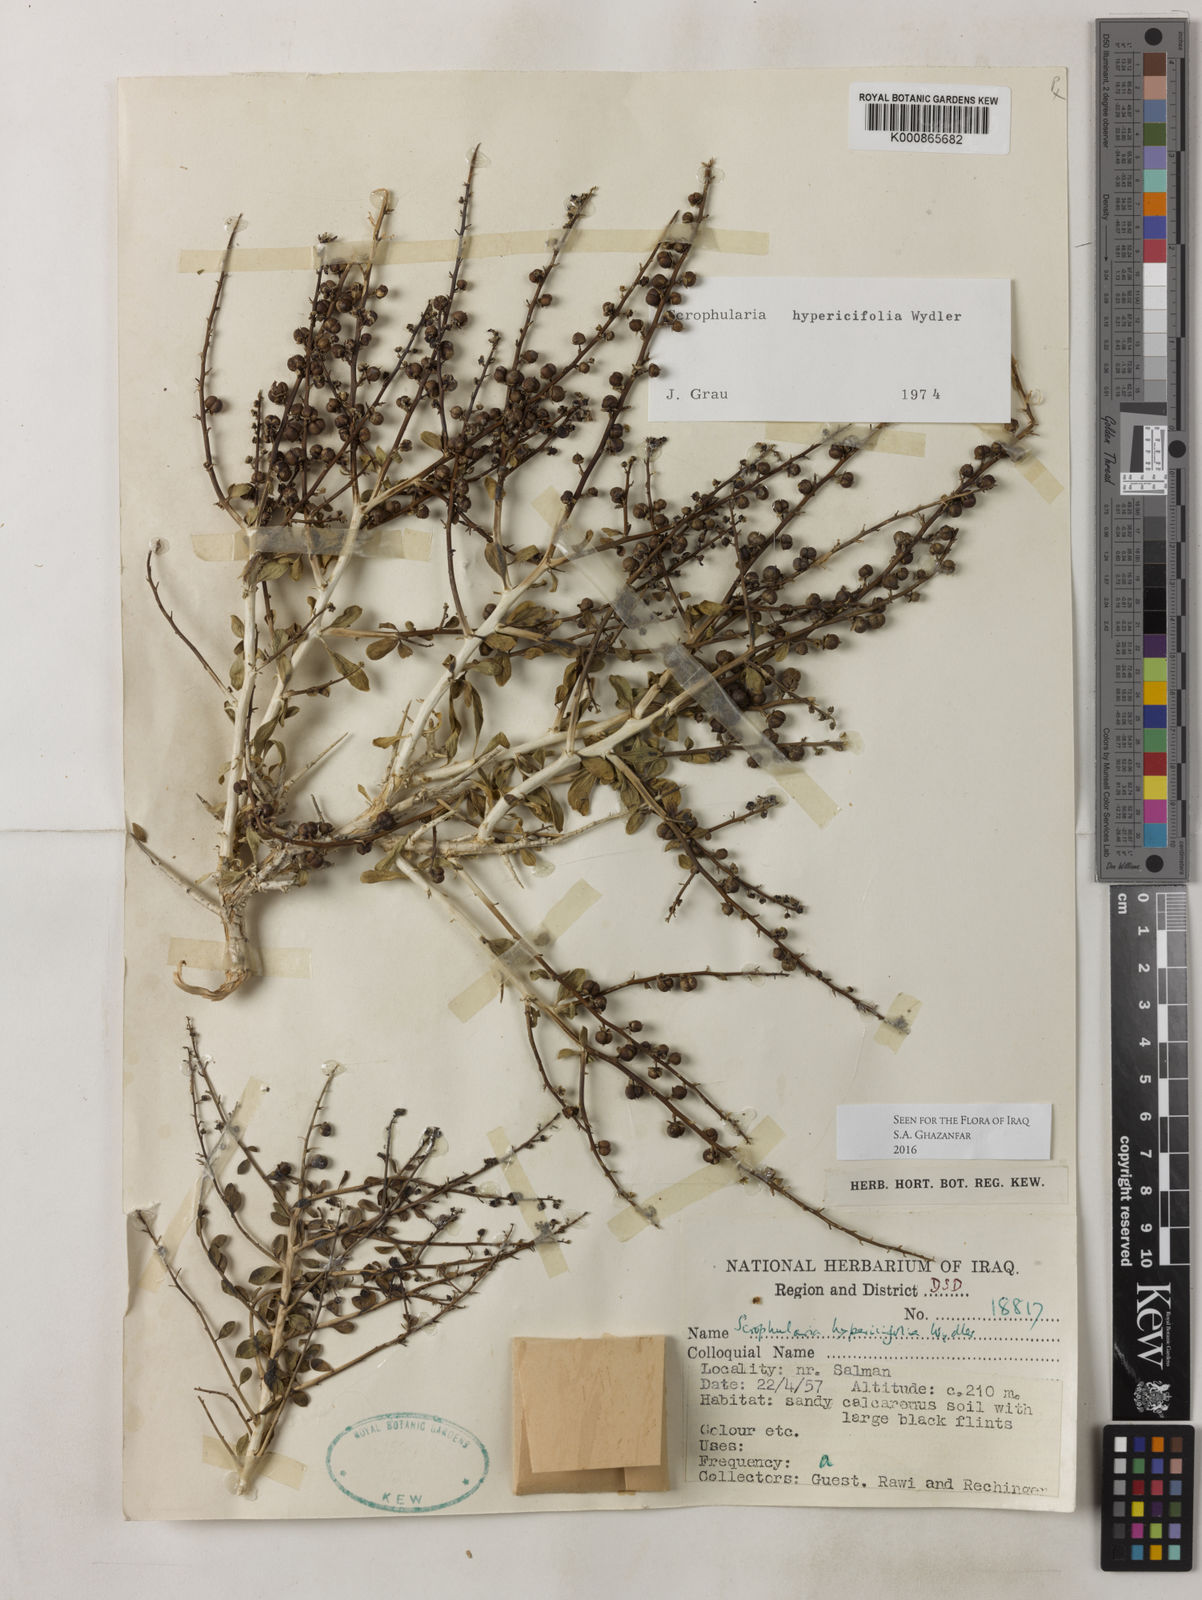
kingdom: Plantae
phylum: Tracheophyta
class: Magnoliopsida
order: Lamiales
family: Scrophulariaceae
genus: Scrophularia
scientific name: Scrophularia hypericifolia
